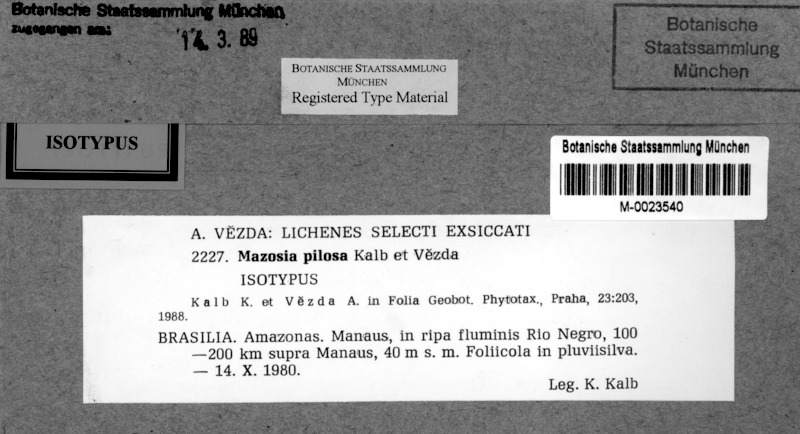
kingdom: Fungi
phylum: Ascomycota
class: Arthoniomycetes
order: Arthoniales
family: Roccellaceae
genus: Mazosia
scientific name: Mazosia pilosa
